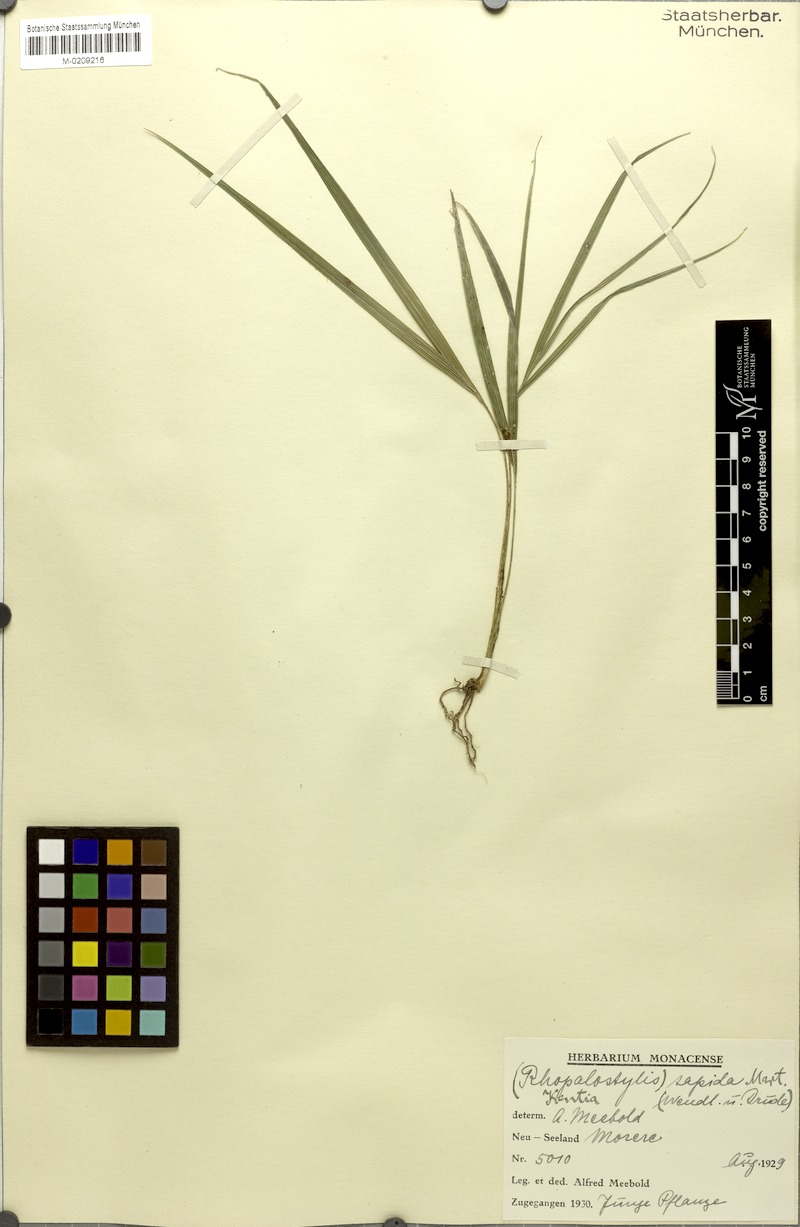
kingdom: Plantae
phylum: Tracheophyta
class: Liliopsida
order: Arecales
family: Arecaceae
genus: Rhopalostylis
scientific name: Rhopalostylis sapida
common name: Feather-duster palm
